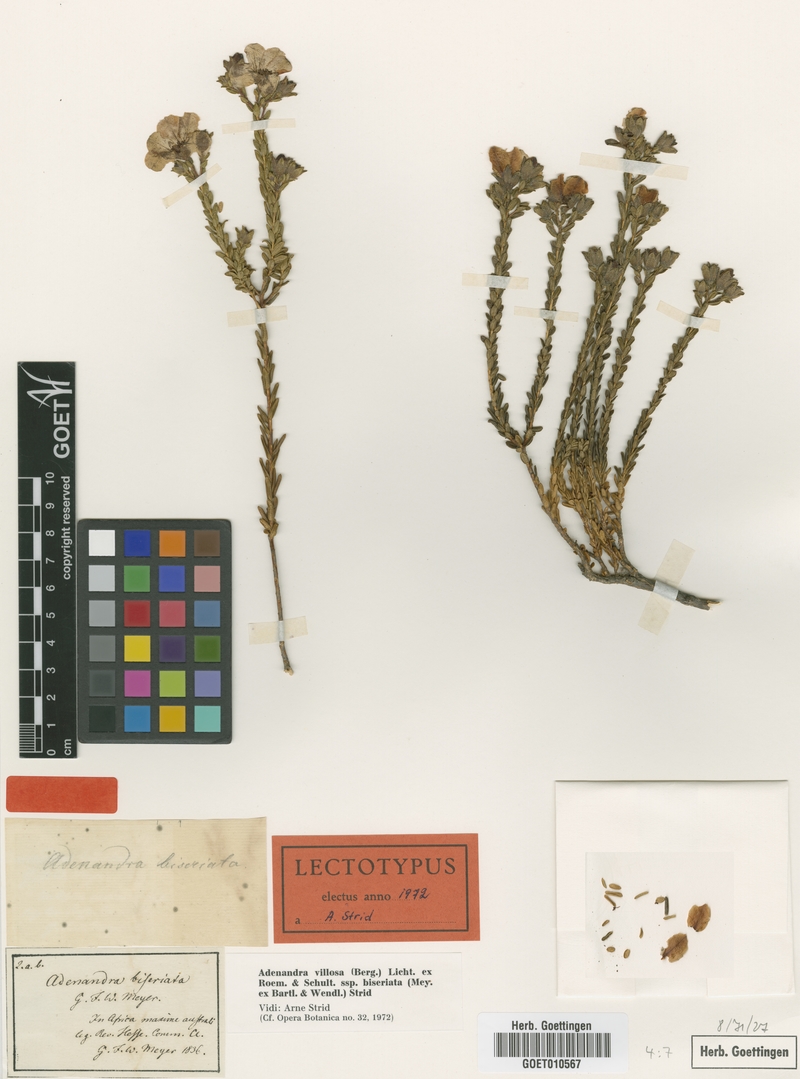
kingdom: Plantae
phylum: Tracheophyta
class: Magnoliopsida
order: Sapindales
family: Rutaceae
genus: Adenandra
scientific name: Adenandra villosa
